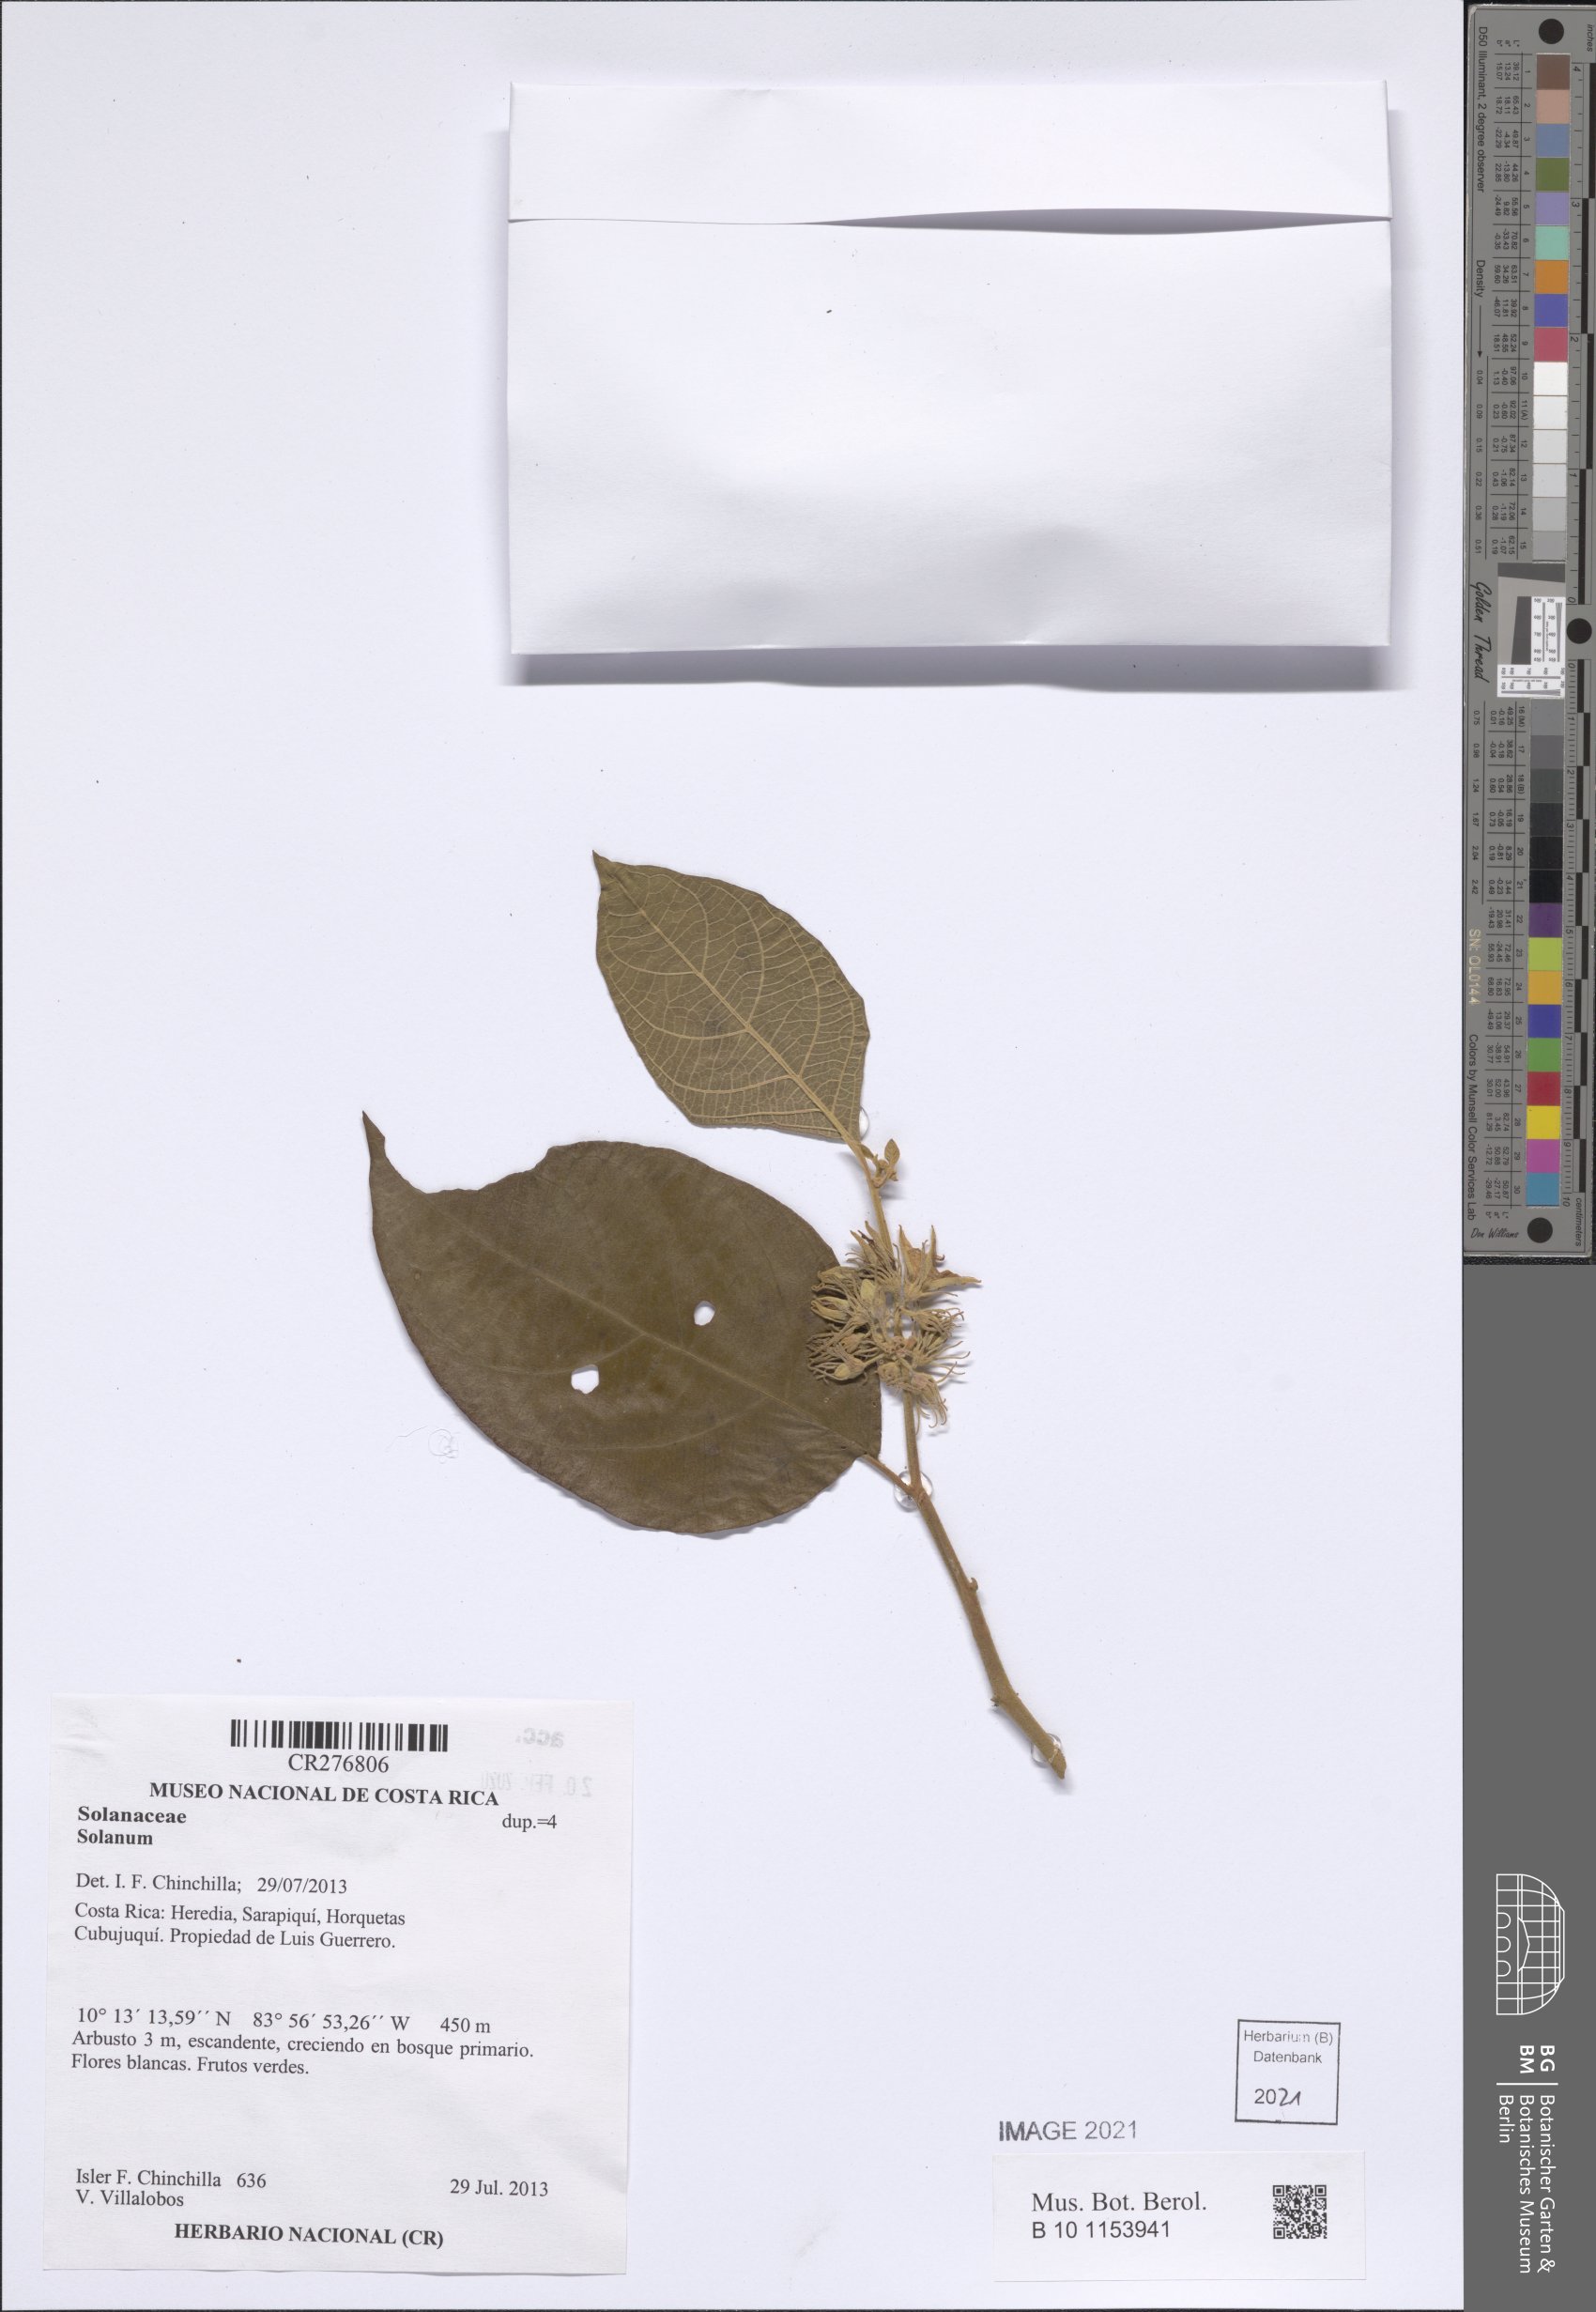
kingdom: Plantae
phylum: Tracheophyta
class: Magnoliopsida
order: Solanales
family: Solanaceae
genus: Solanum
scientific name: Solanum
